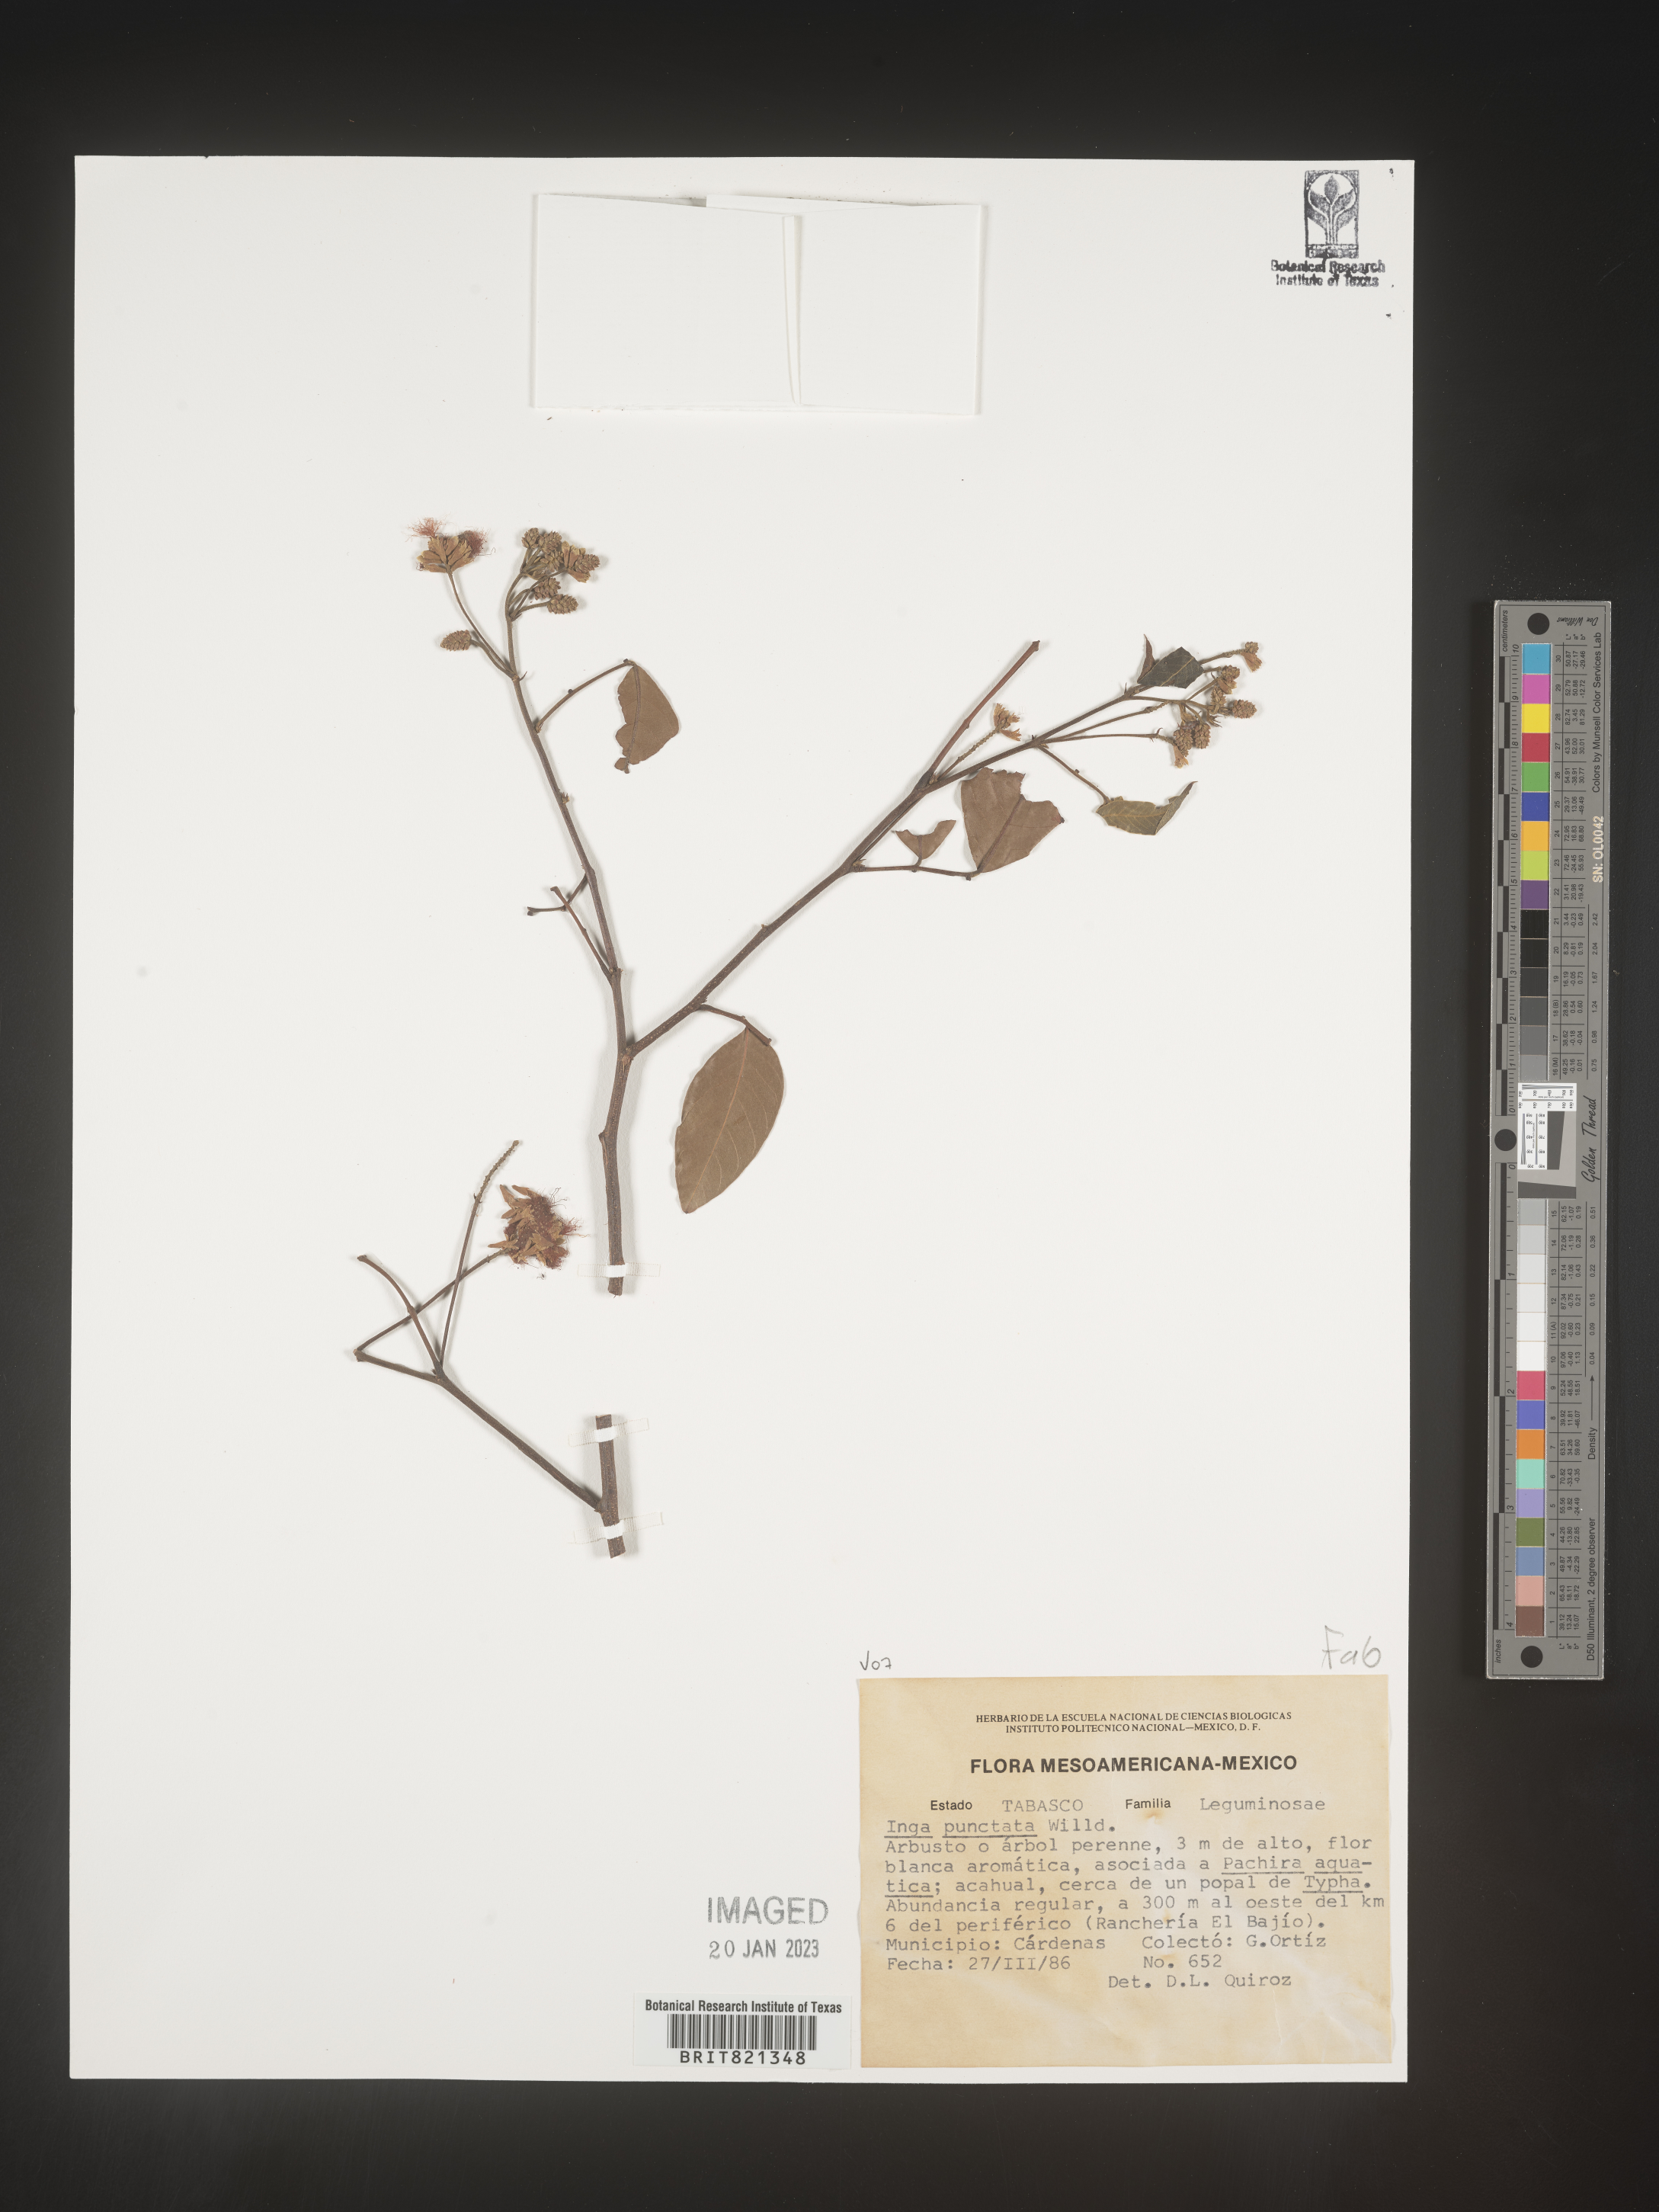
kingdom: Plantae
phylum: Tracheophyta
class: Magnoliopsida
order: Fabales
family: Fabaceae
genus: Inga
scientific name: Inga
